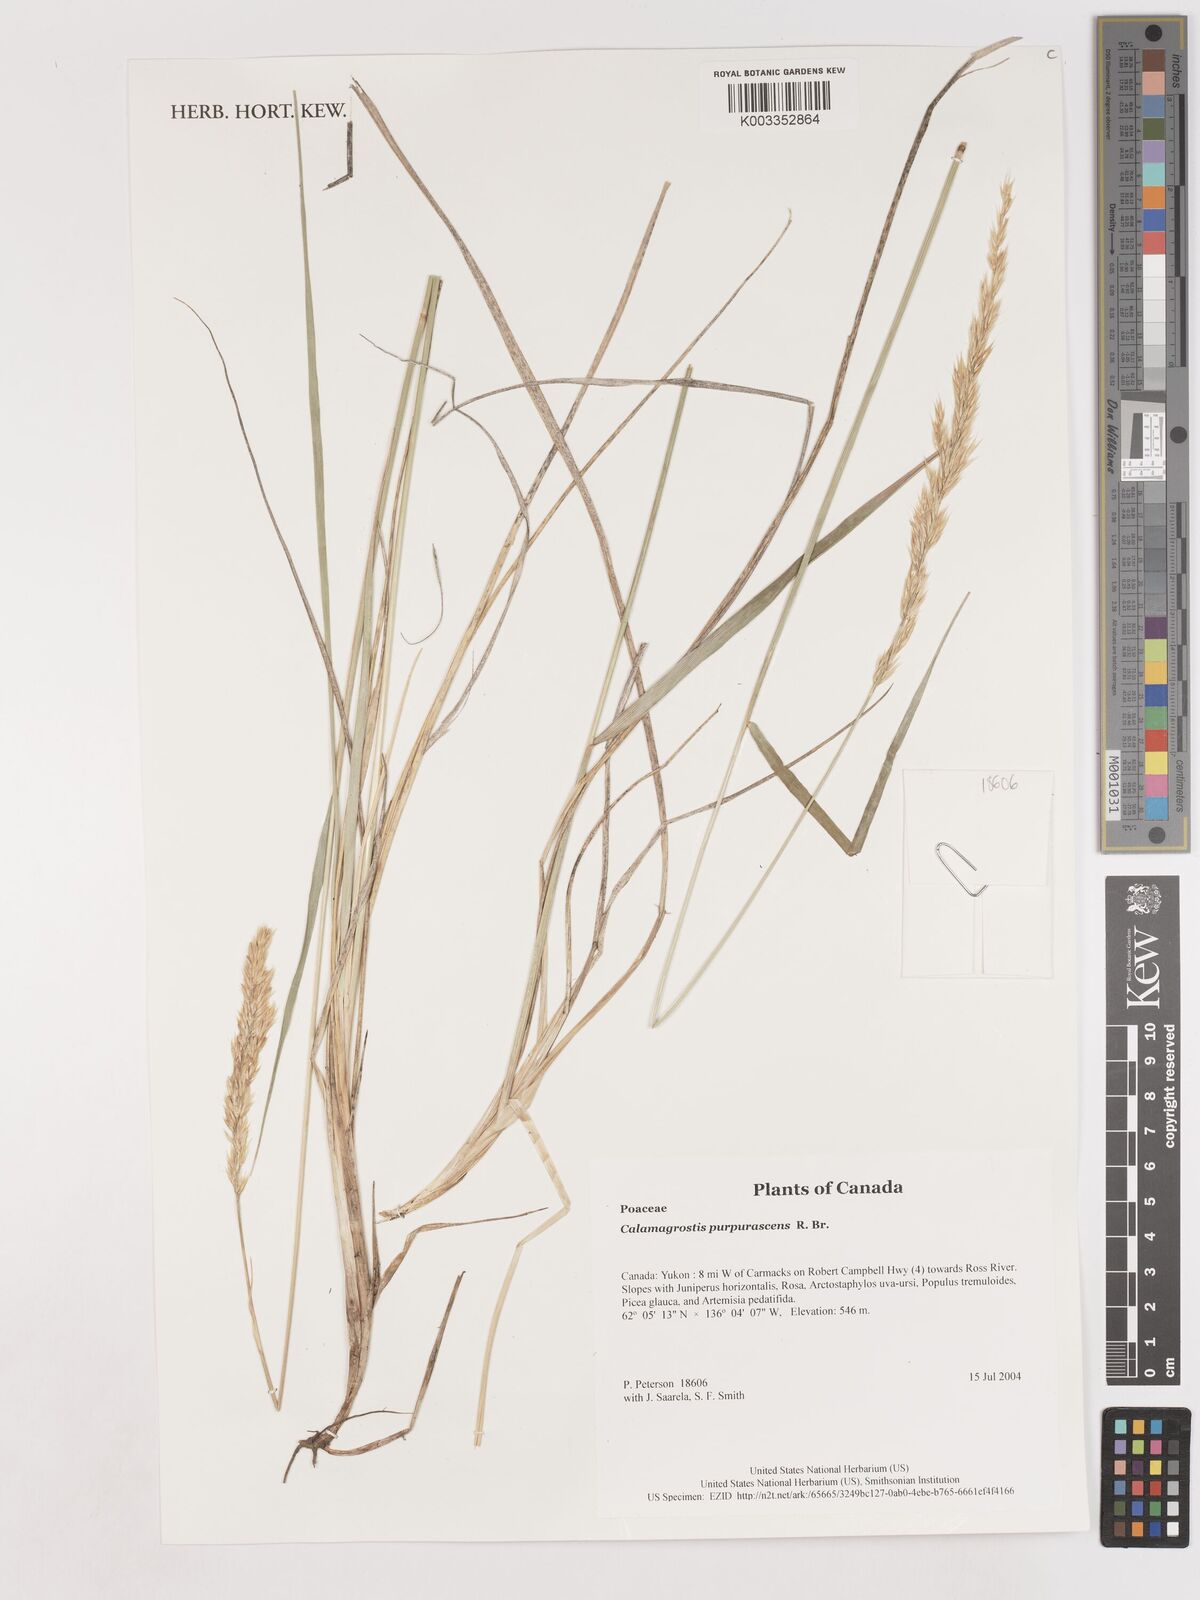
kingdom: Plantae
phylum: Tracheophyta
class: Liliopsida
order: Poales
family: Poaceae
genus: Calamagrostis
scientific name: Calamagrostis purpurascens
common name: Purple reedgrass
